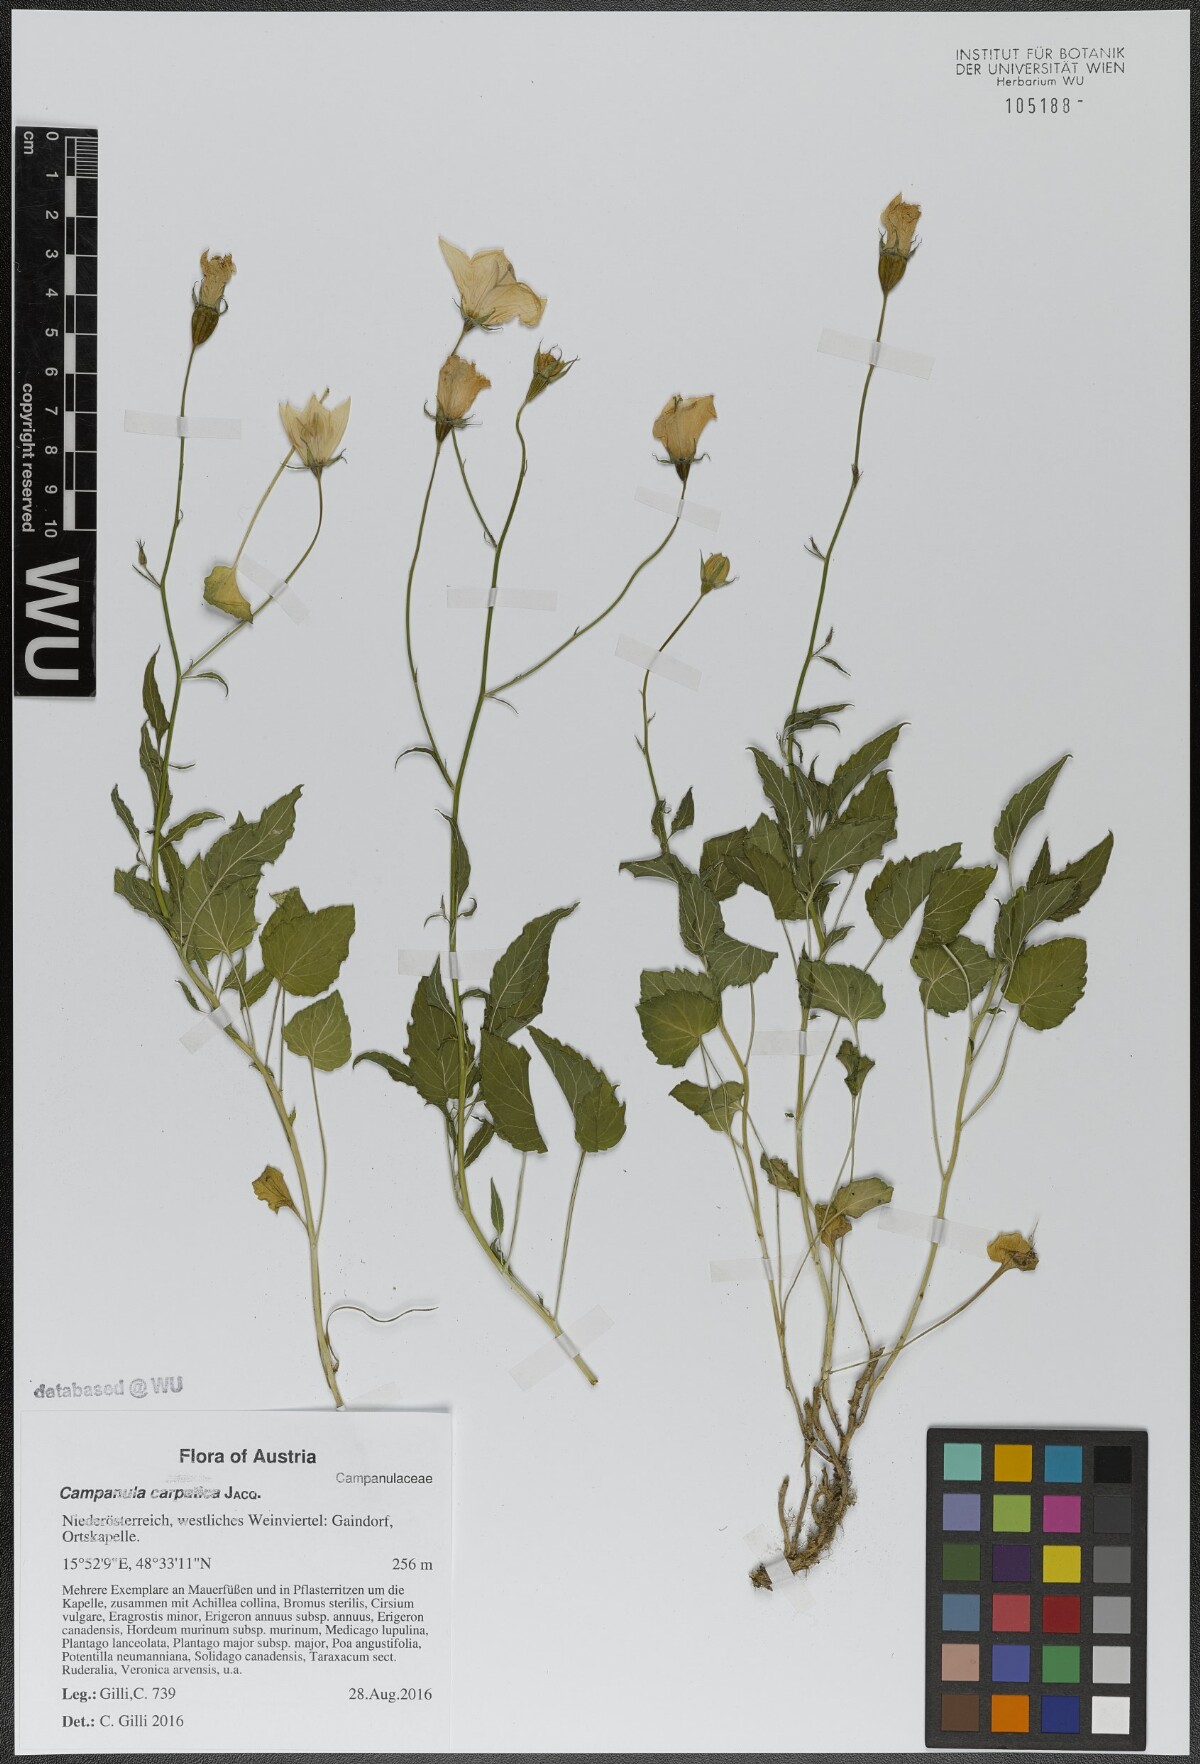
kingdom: Plantae
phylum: Tracheophyta
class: Magnoliopsida
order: Asterales
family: Campanulaceae
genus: Campanula
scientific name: Campanula carpatica
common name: Tussock bellflower
